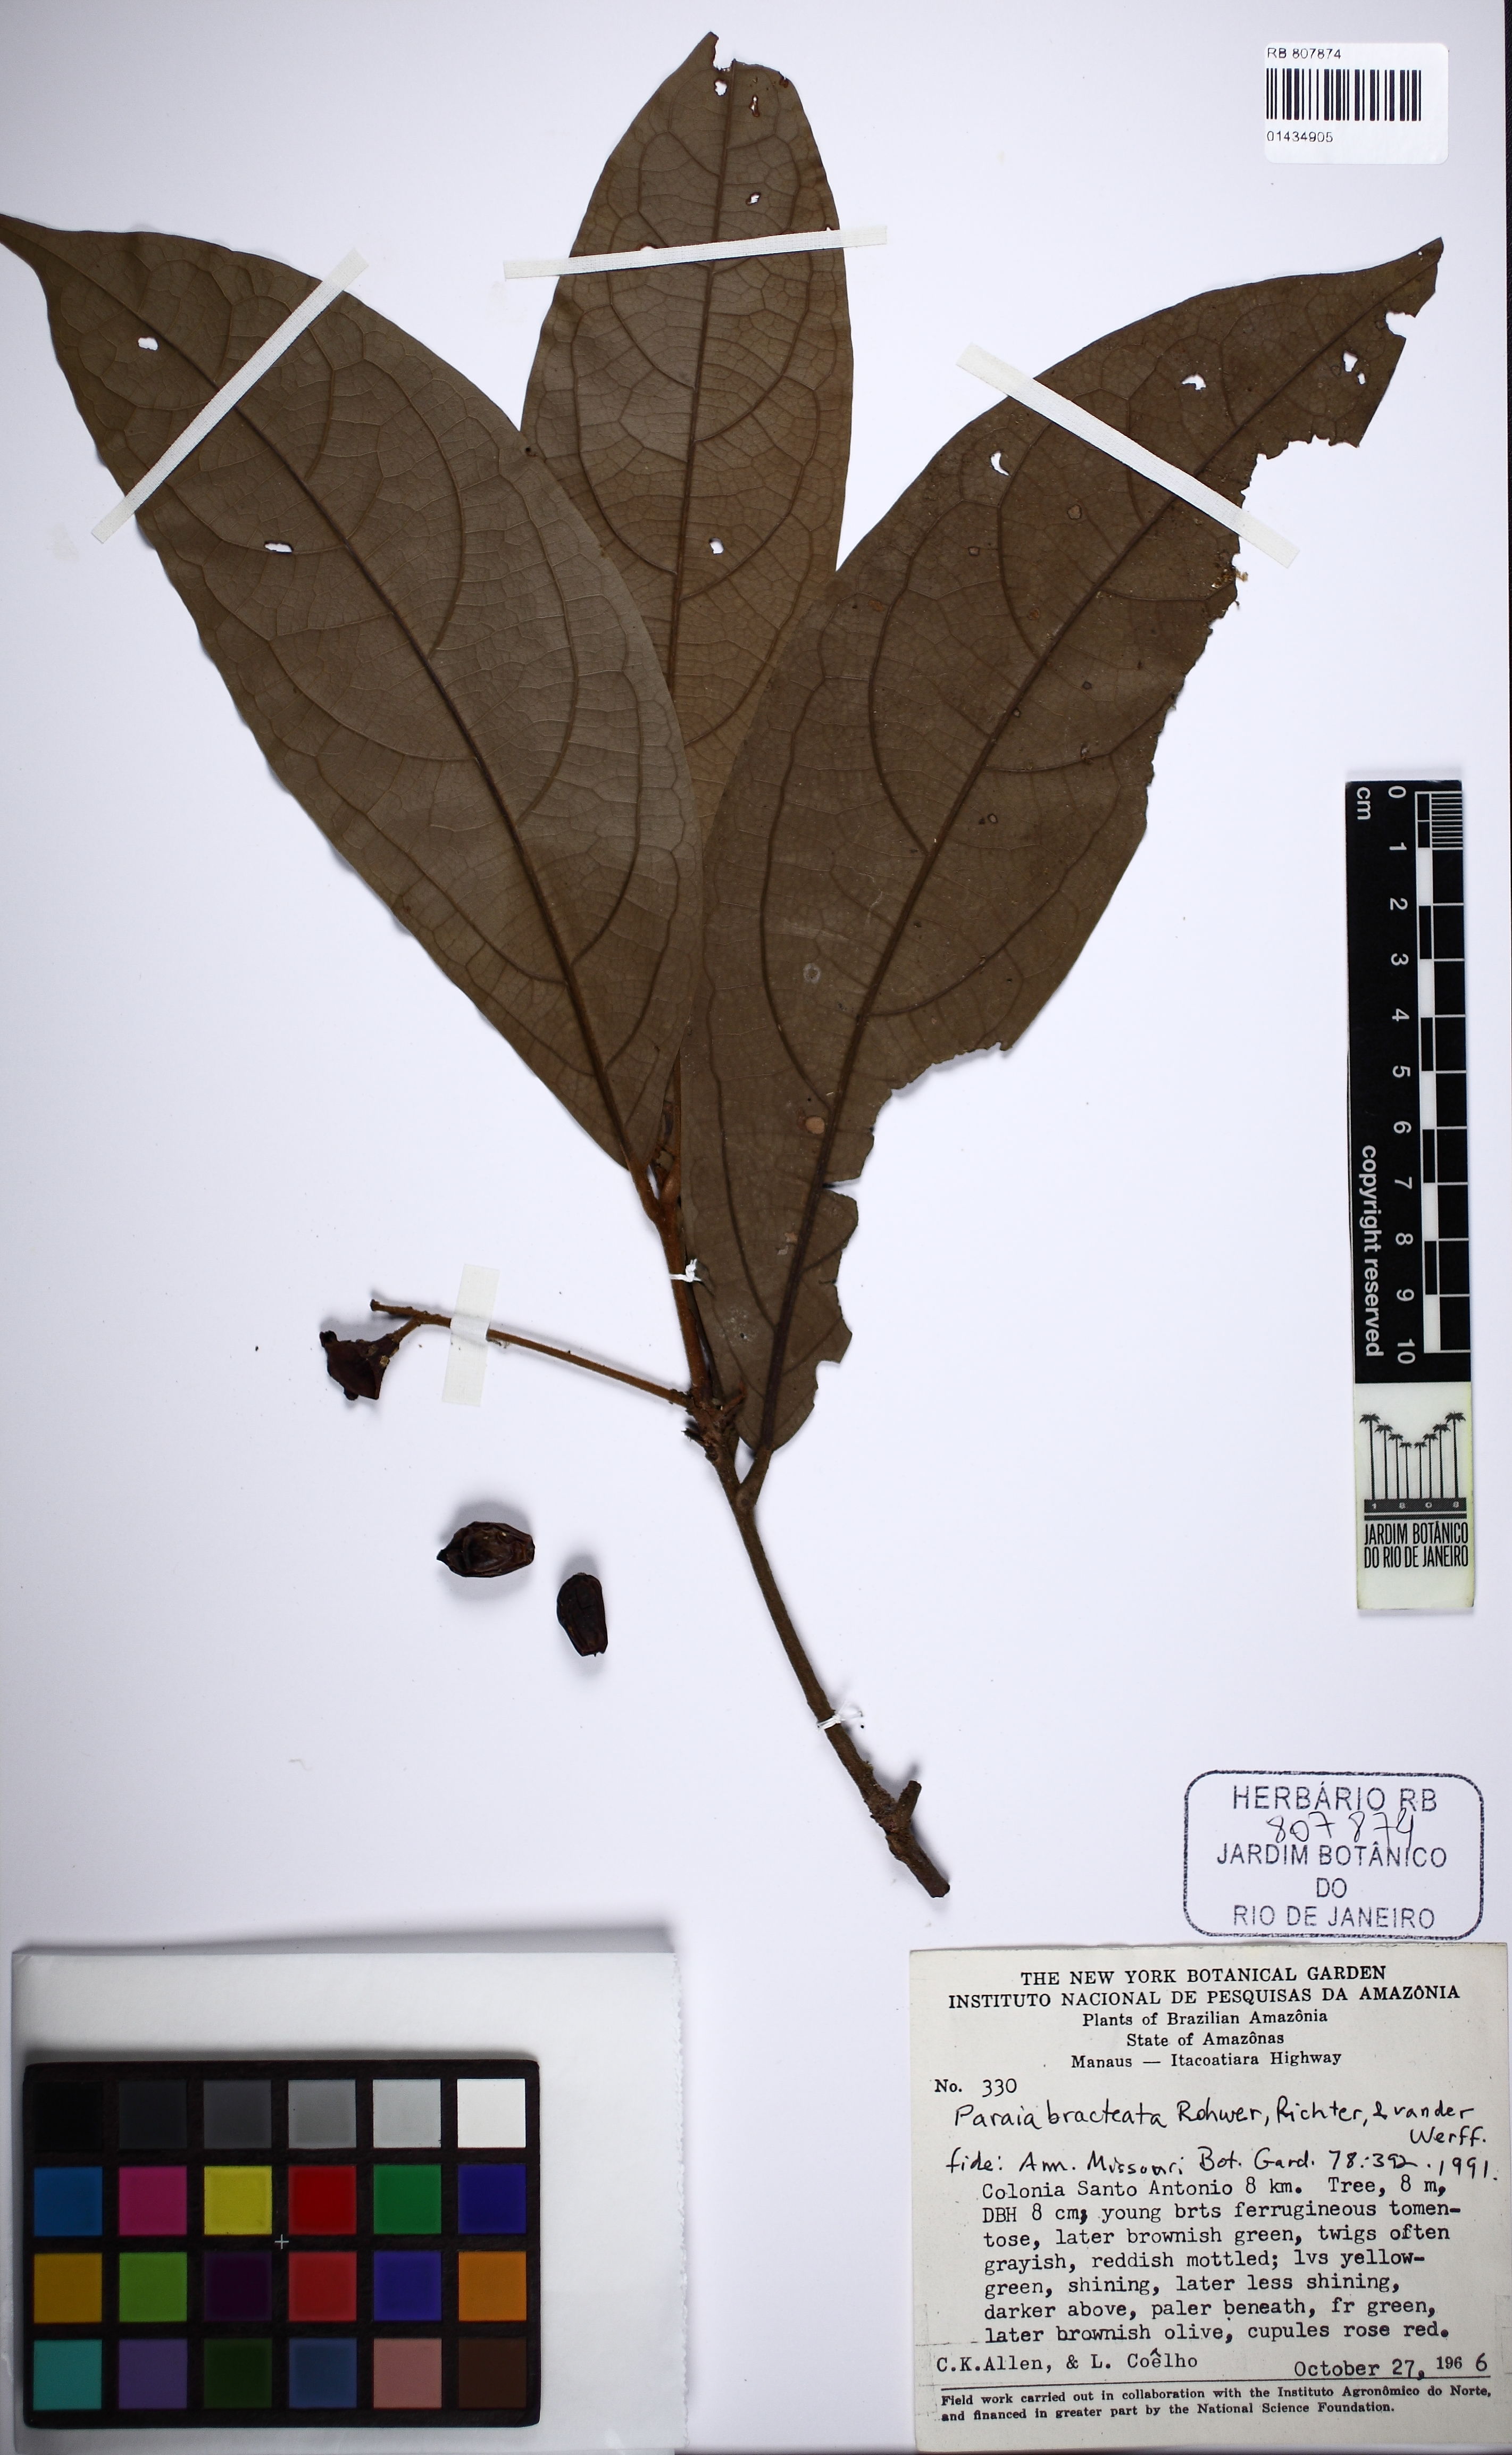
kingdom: Plantae
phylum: Tracheophyta
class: Magnoliopsida
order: Laurales
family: Lauraceae
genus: Paraia
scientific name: Paraia bracteata
